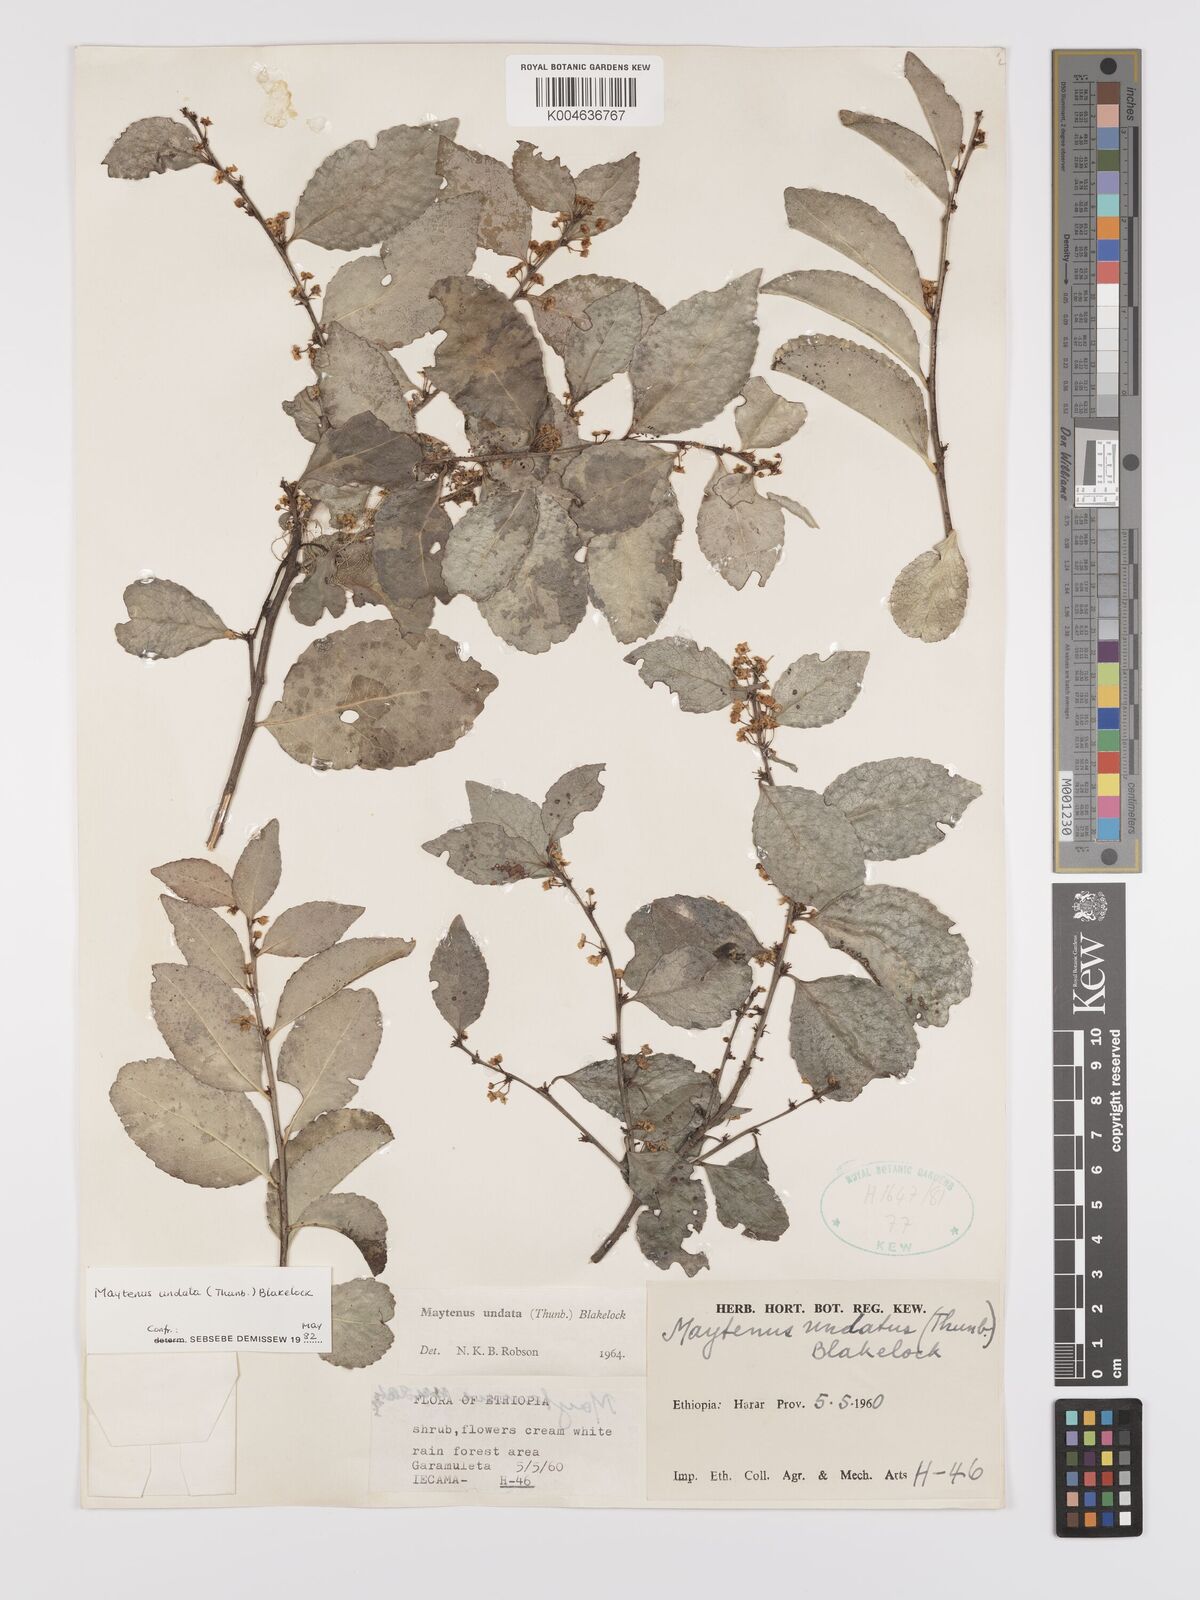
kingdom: Plantae
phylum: Tracheophyta
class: Magnoliopsida
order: Celastrales
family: Celastraceae
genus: Gymnosporia
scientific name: Gymnosporia undata
